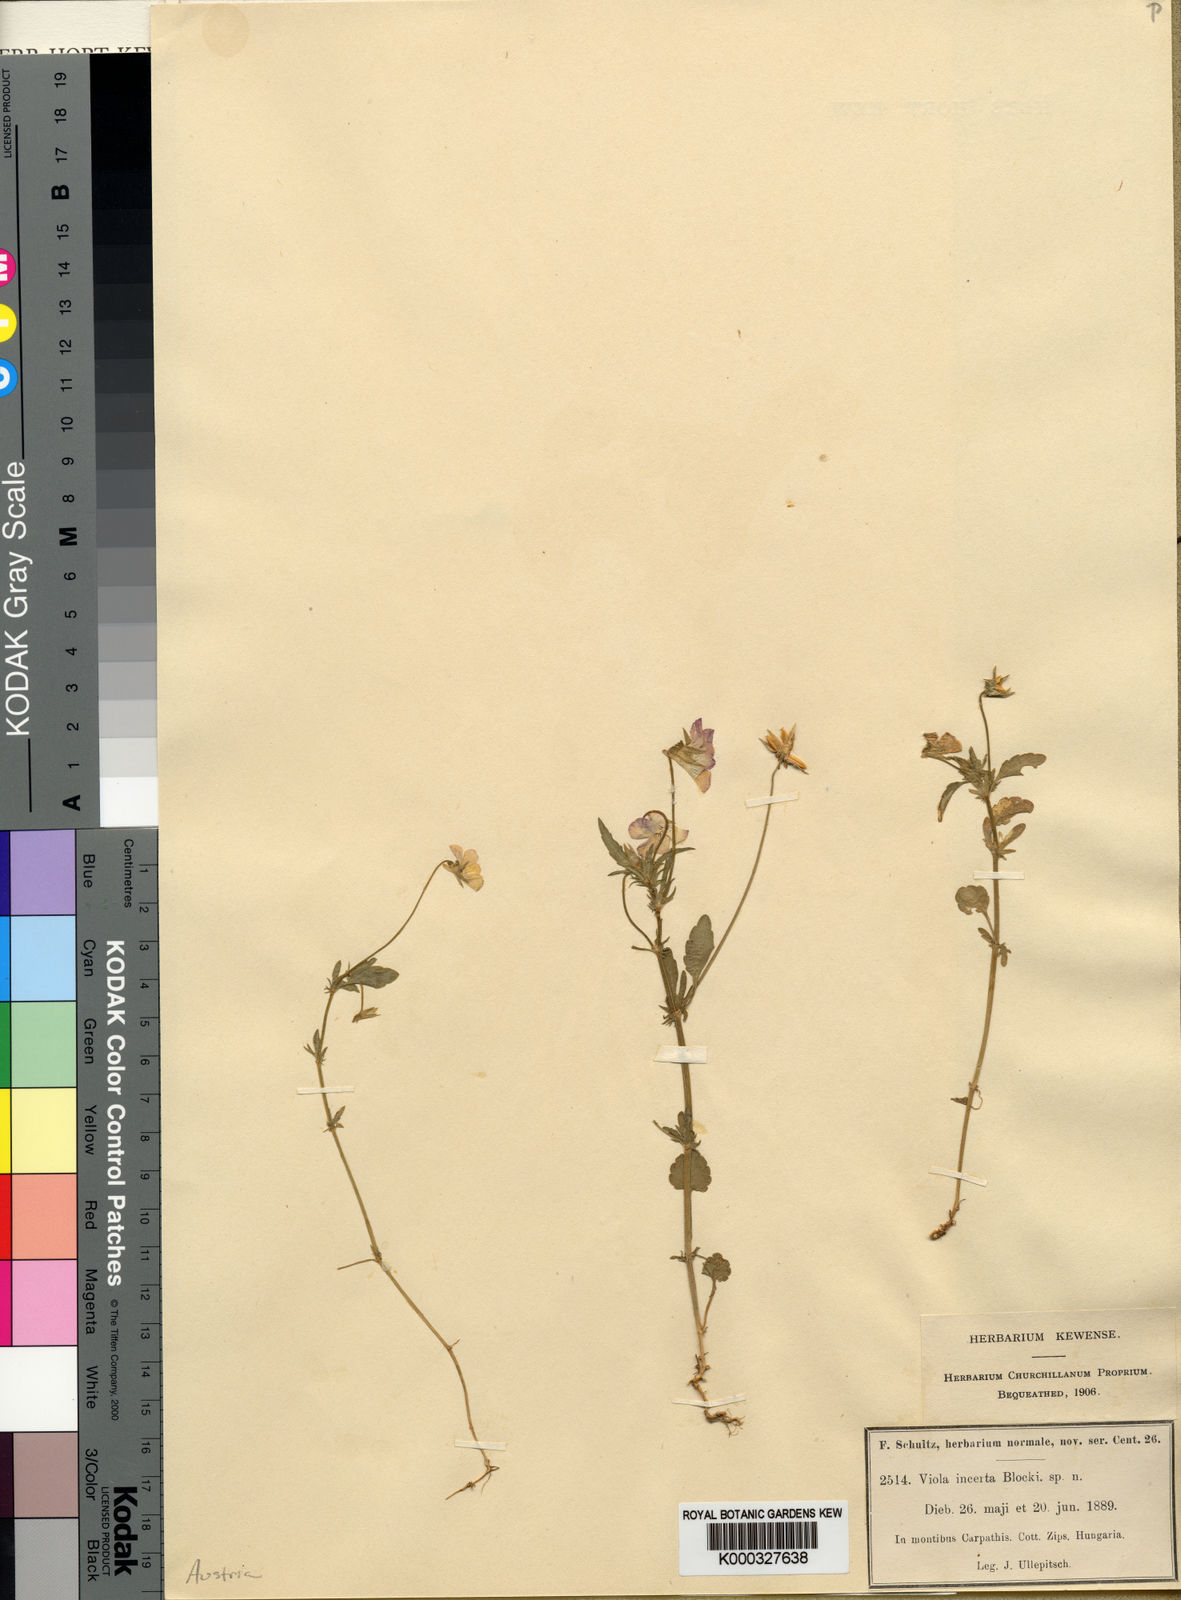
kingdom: Plantae
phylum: Tracheophyta
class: Magnoliopsida
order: Malpighiales
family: Violaceae
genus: Viola
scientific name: Viola tricolor
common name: Pansy
